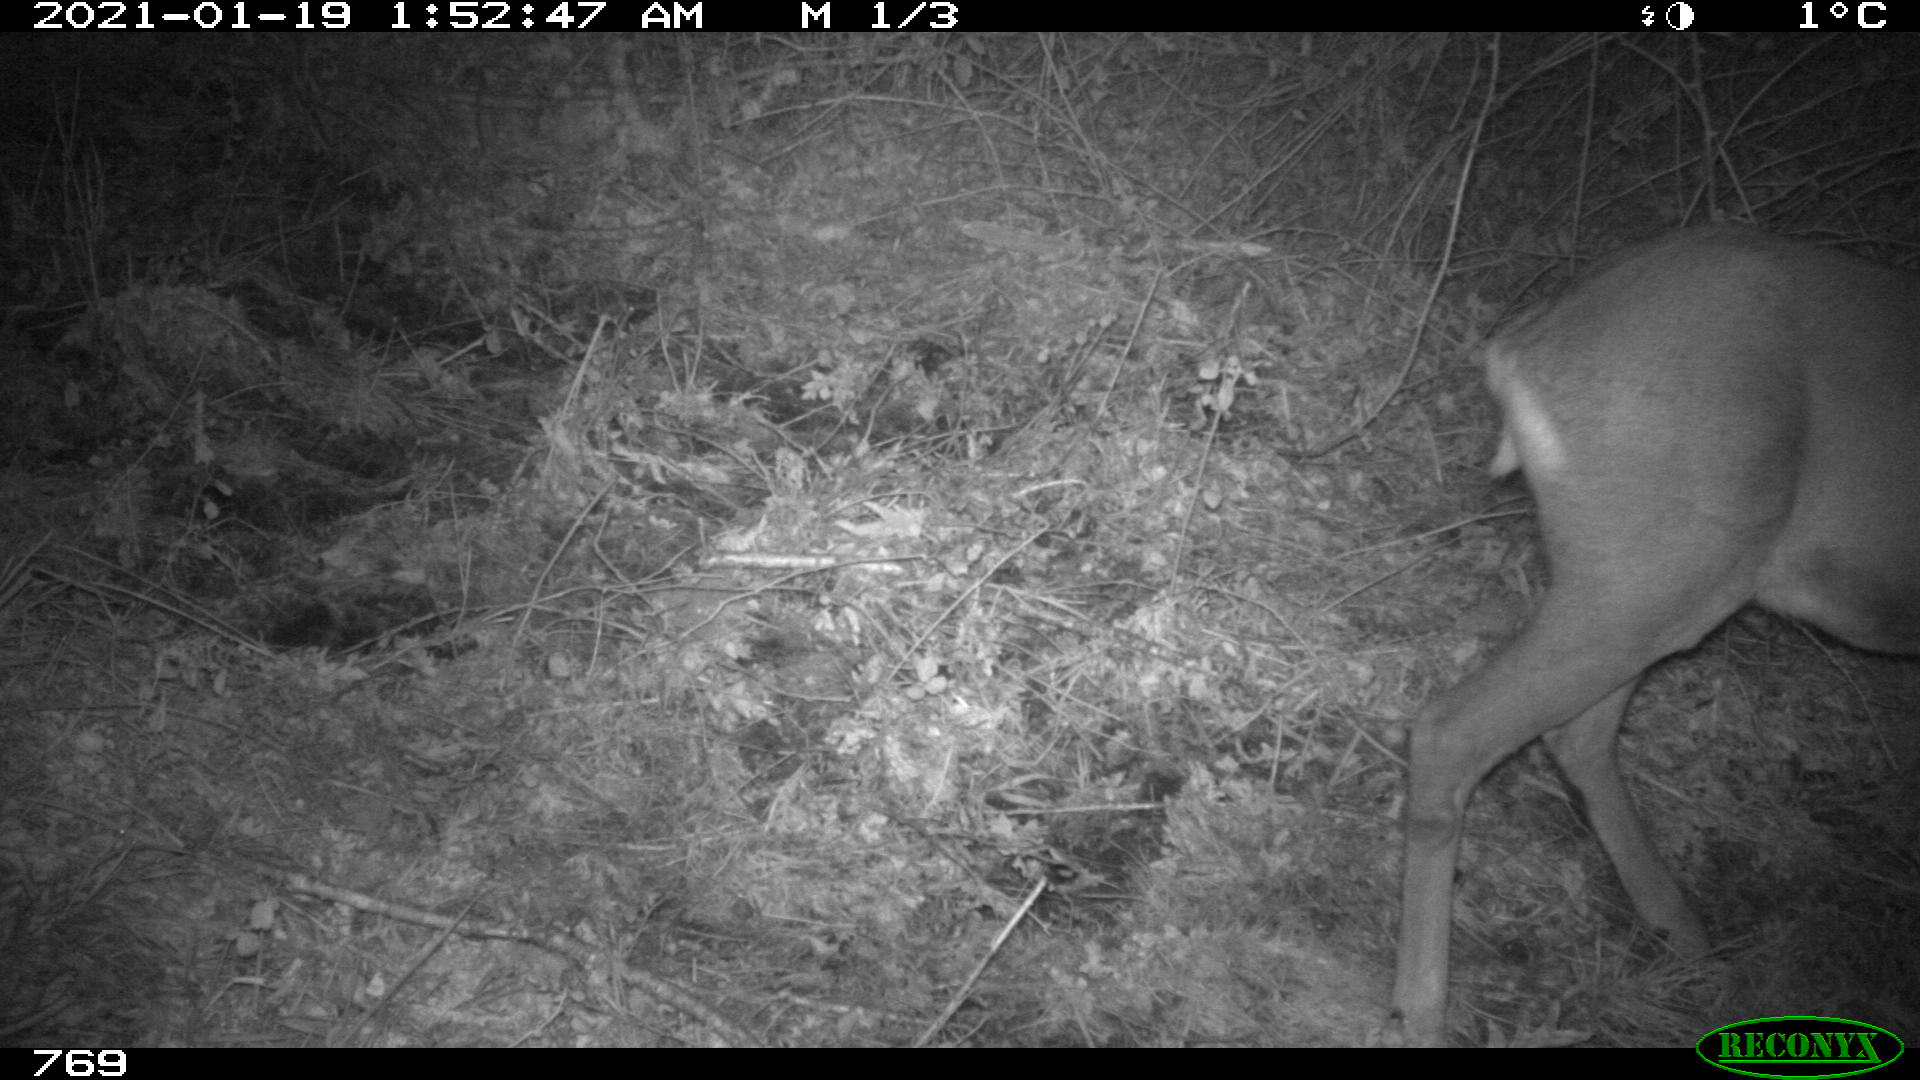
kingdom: Animalia
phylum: Chordata
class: Mammalia
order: Artiodactyla
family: Cervidae
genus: Capreolus
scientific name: Capreolus capreolus
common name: Western roe deer
